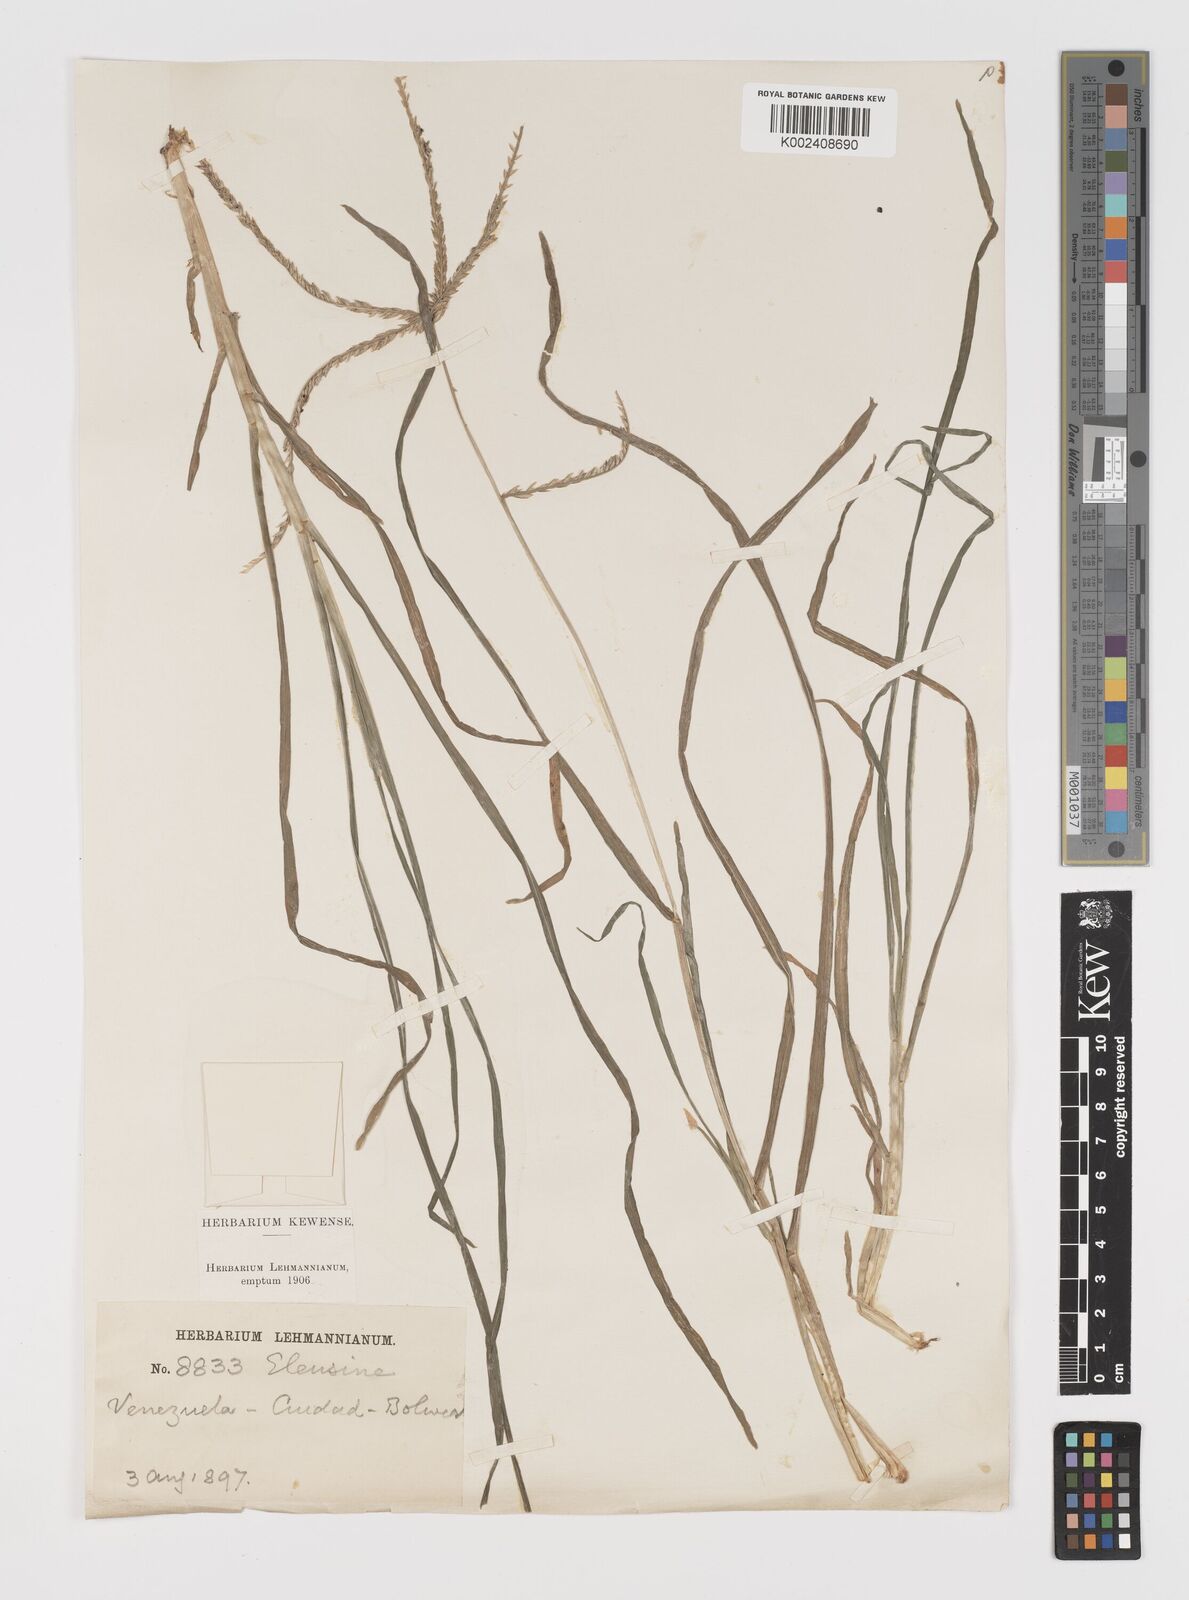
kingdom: Plantae
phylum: Tracheophyta
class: Liliopsida
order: Poales
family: Poaceae
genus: Eleusine
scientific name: Eleusine indica
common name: Yard-grass
